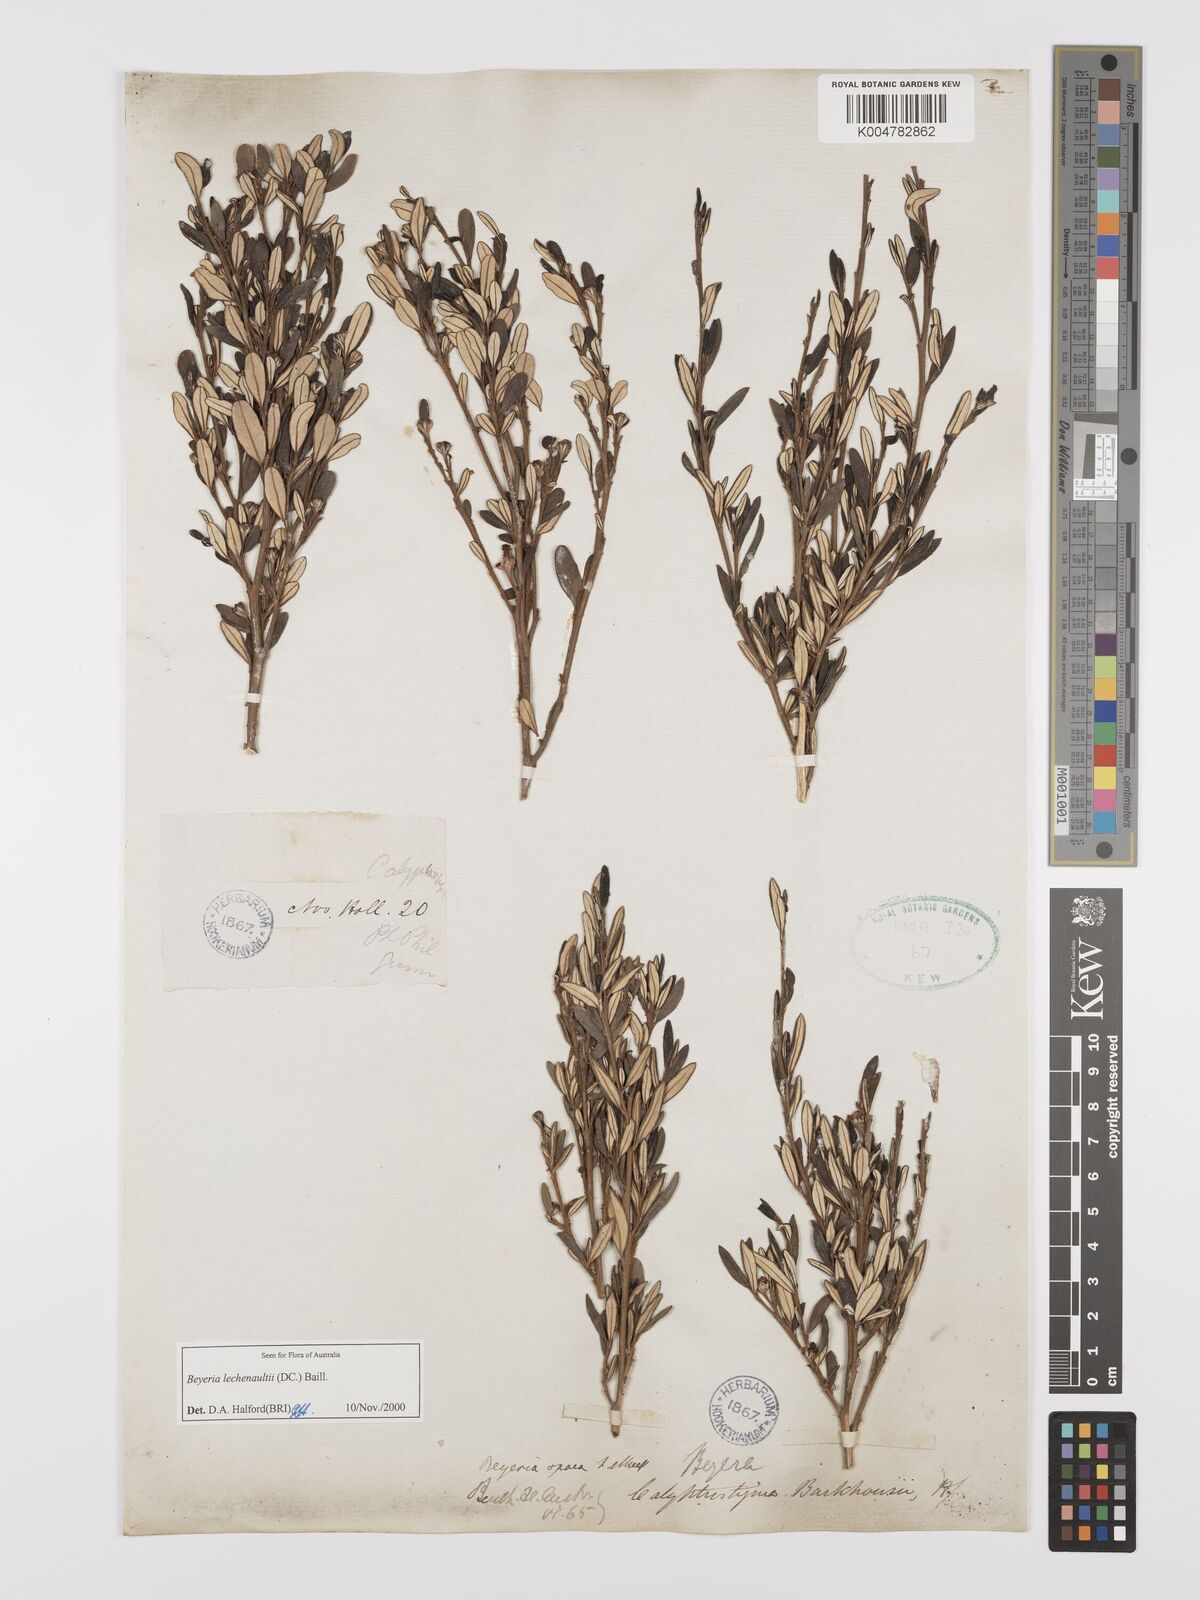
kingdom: Plantae
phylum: Tracheophyta
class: Magnoliopsida
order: Malpighiales
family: Euphorbiaceae
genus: Beyeria
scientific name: Beyeria
